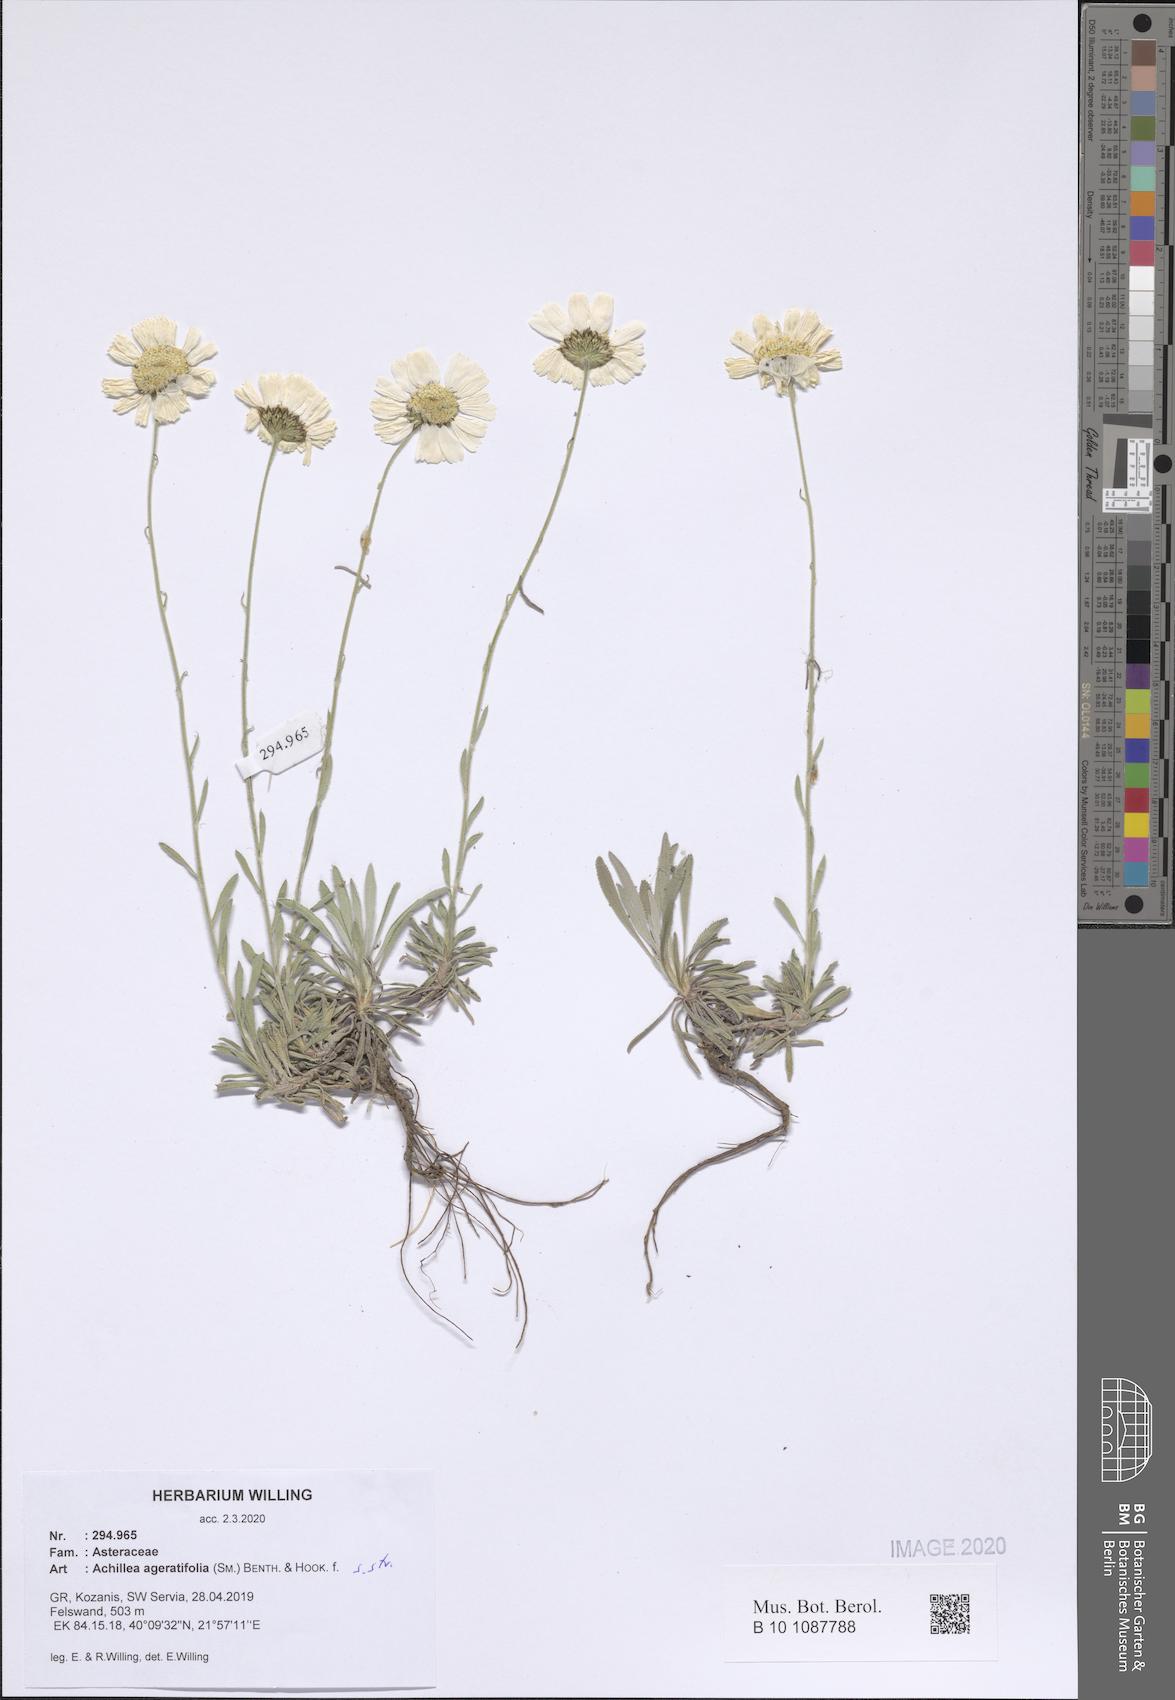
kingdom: Plantae
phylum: Tracheophyta
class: Magnoliopsida
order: Asterales
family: Asteraceae
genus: Achillea
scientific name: Achillea ageratifolia
